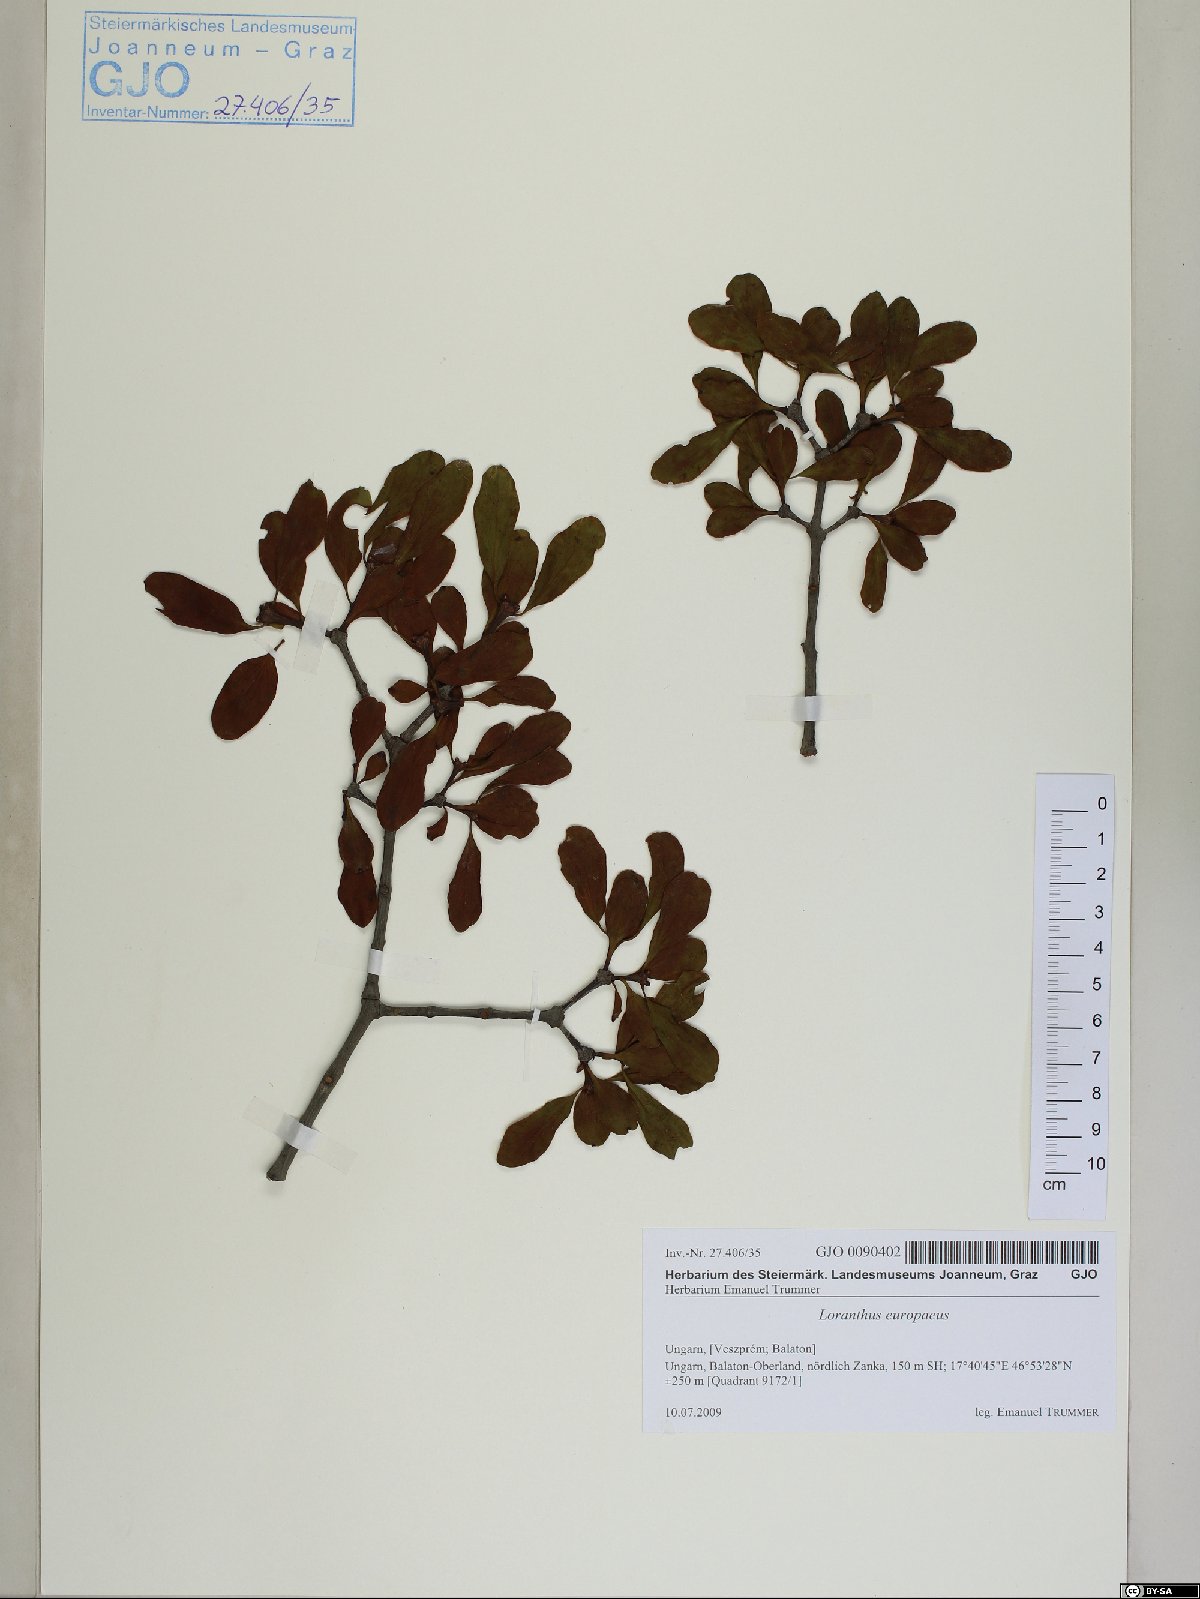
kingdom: Plantae
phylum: Tracheophyta
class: Magnoliopsida
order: Santalales
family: Loranthaceae
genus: Loranthus
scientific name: Loranthus europaeus
